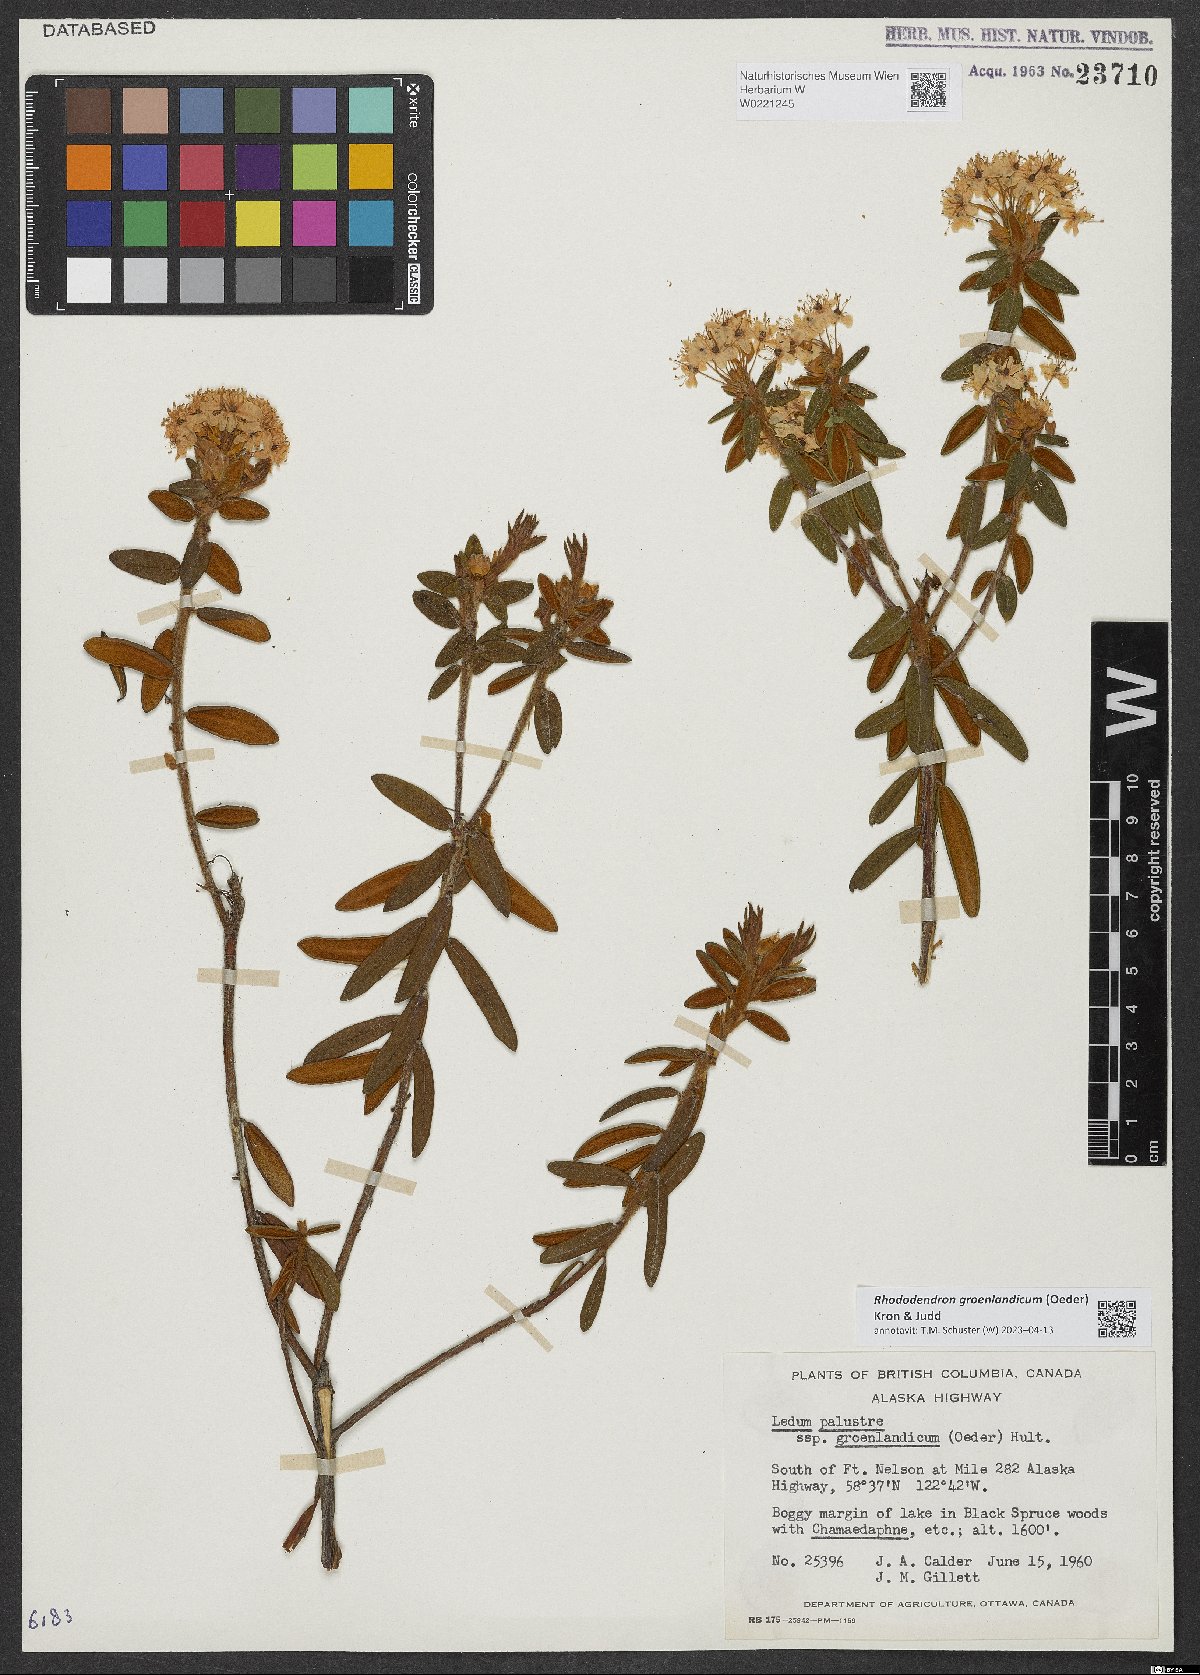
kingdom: Plantae
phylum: Tracheophyta
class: Magnoliopsida
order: Ericales
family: Ericaceae
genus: Rhododendron
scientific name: Rhododendron groenlandicum
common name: Bog labrador tea
